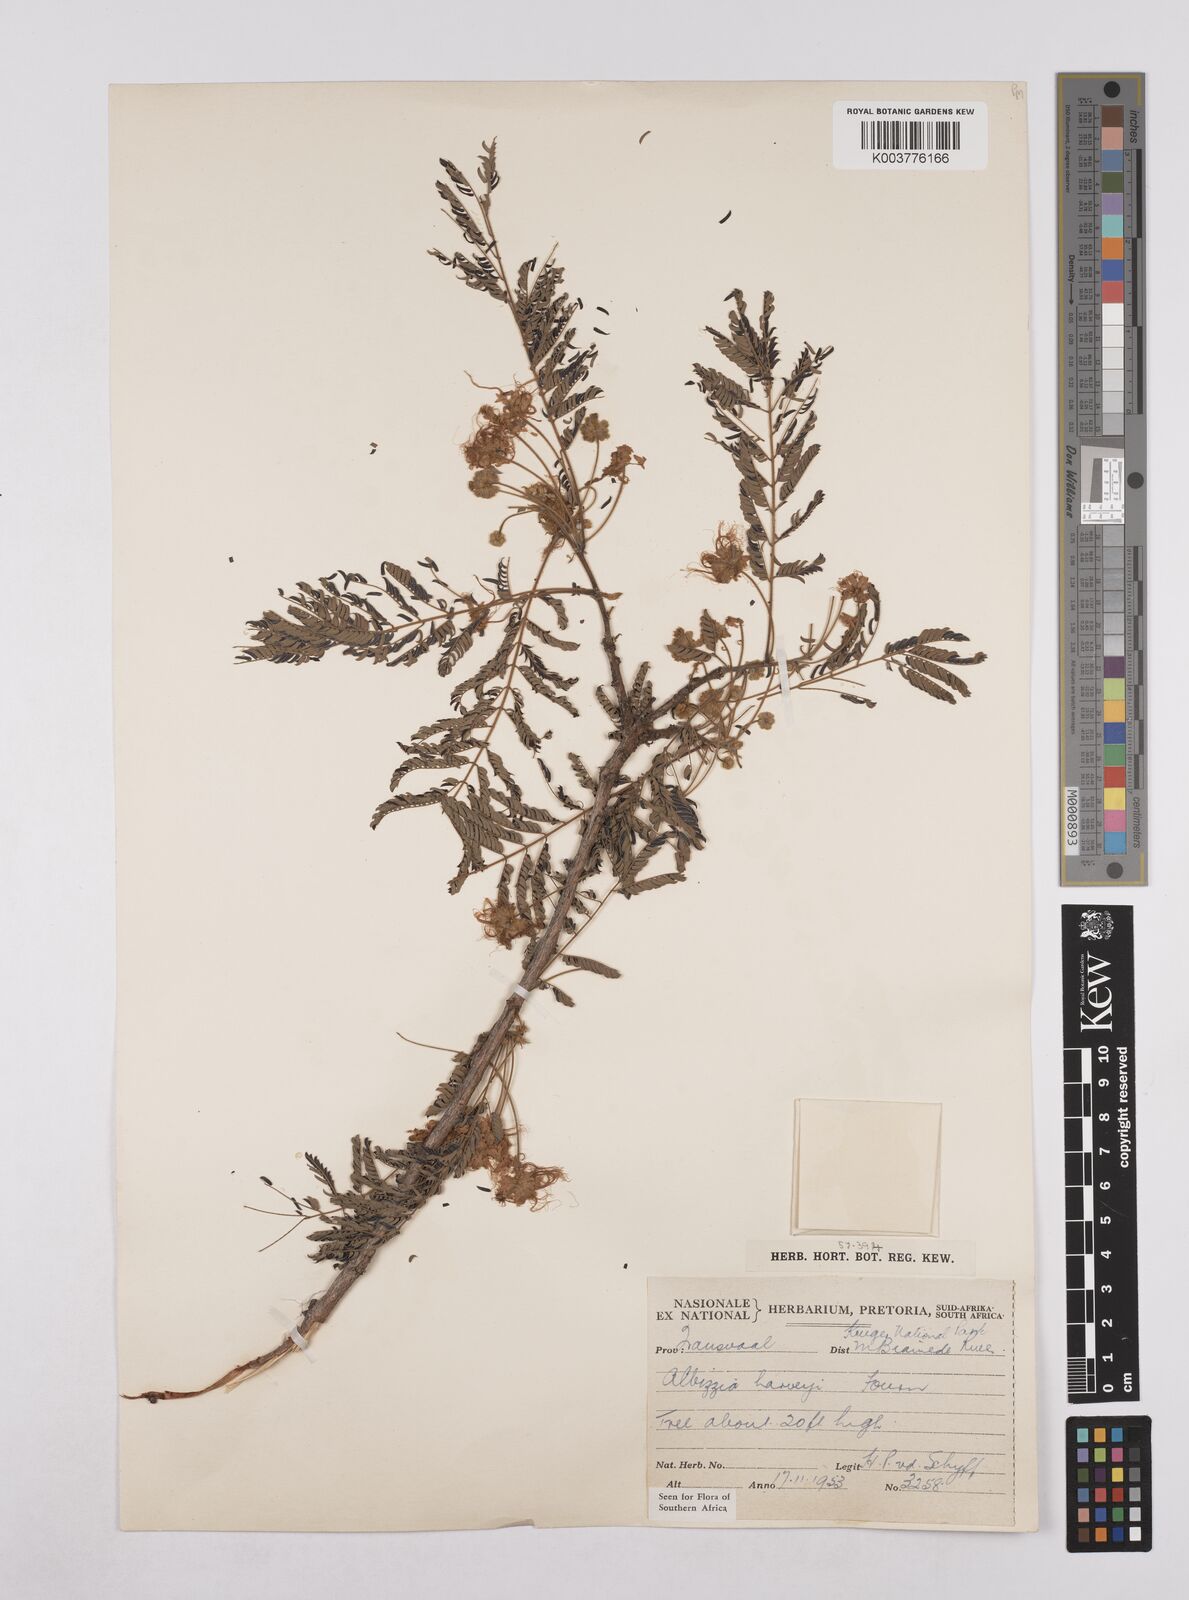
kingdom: Plantae
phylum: Tracheophyta
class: Magnoliopsida
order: Fabales
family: Fabaceae
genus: Albizia
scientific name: Albizia harveyi
